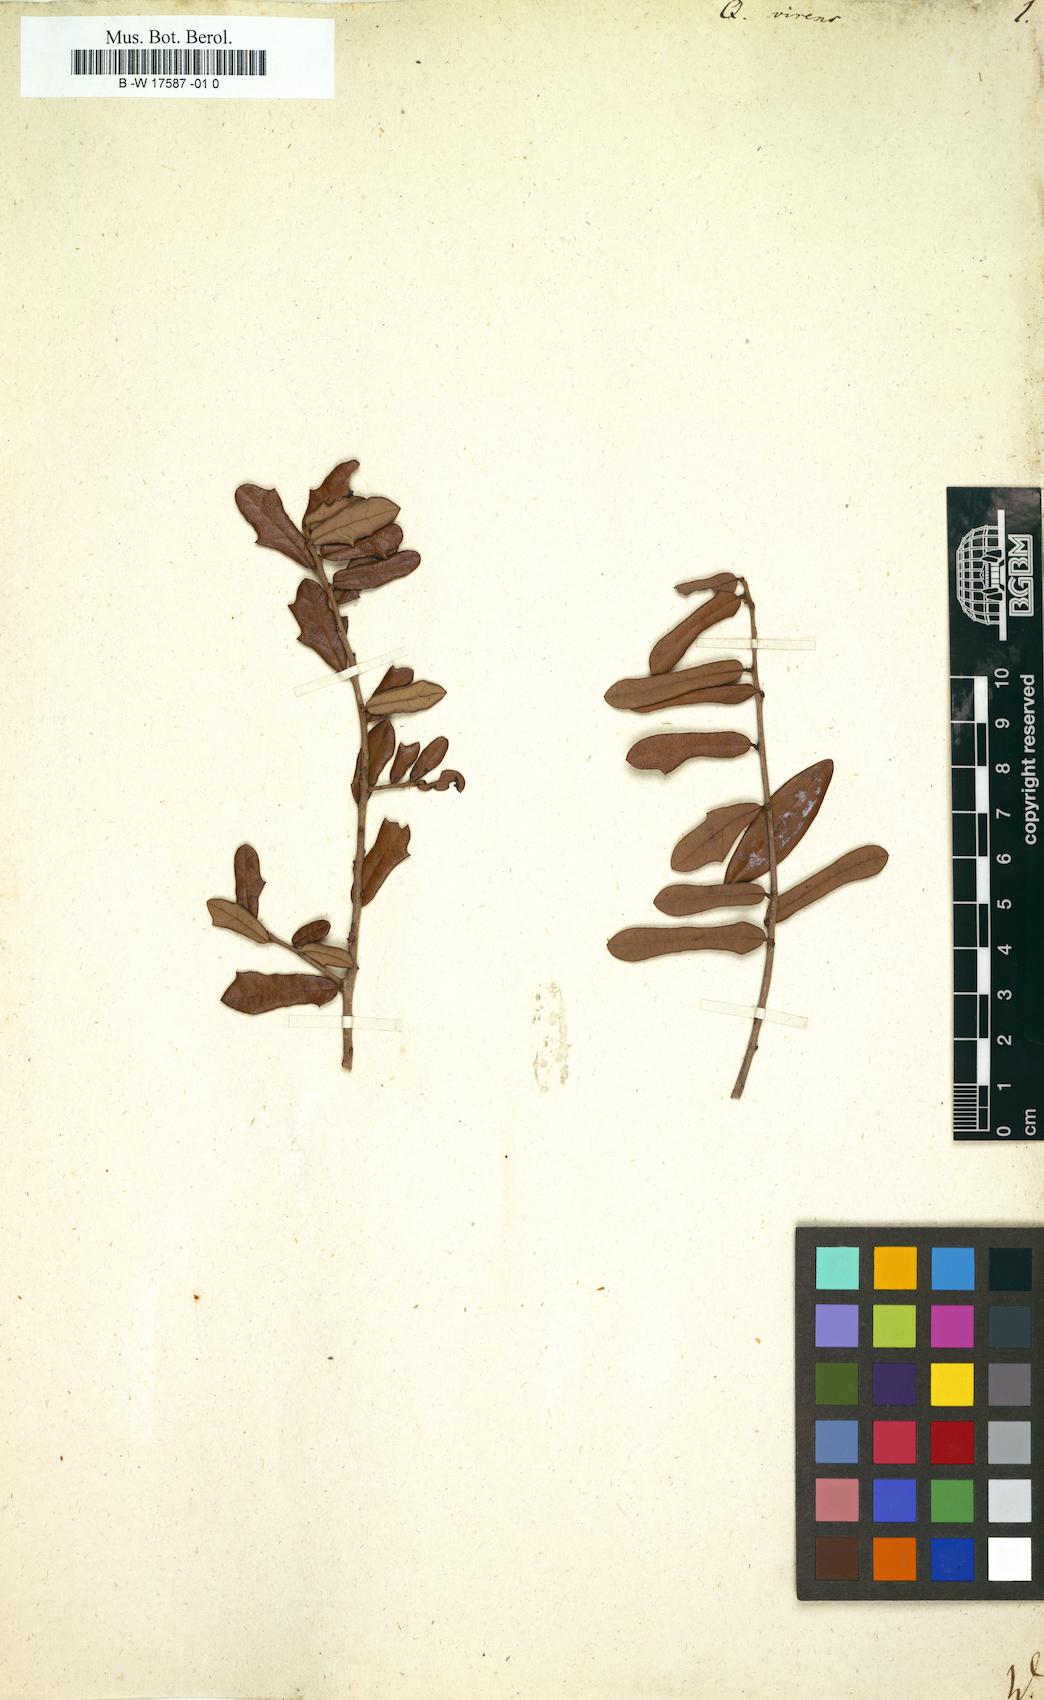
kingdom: Plantae
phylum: Tracheophyta
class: Magnoliopsida
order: Fagales
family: Fagaceae
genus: Quercus
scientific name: Quercus virginiana
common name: Southern live oak
